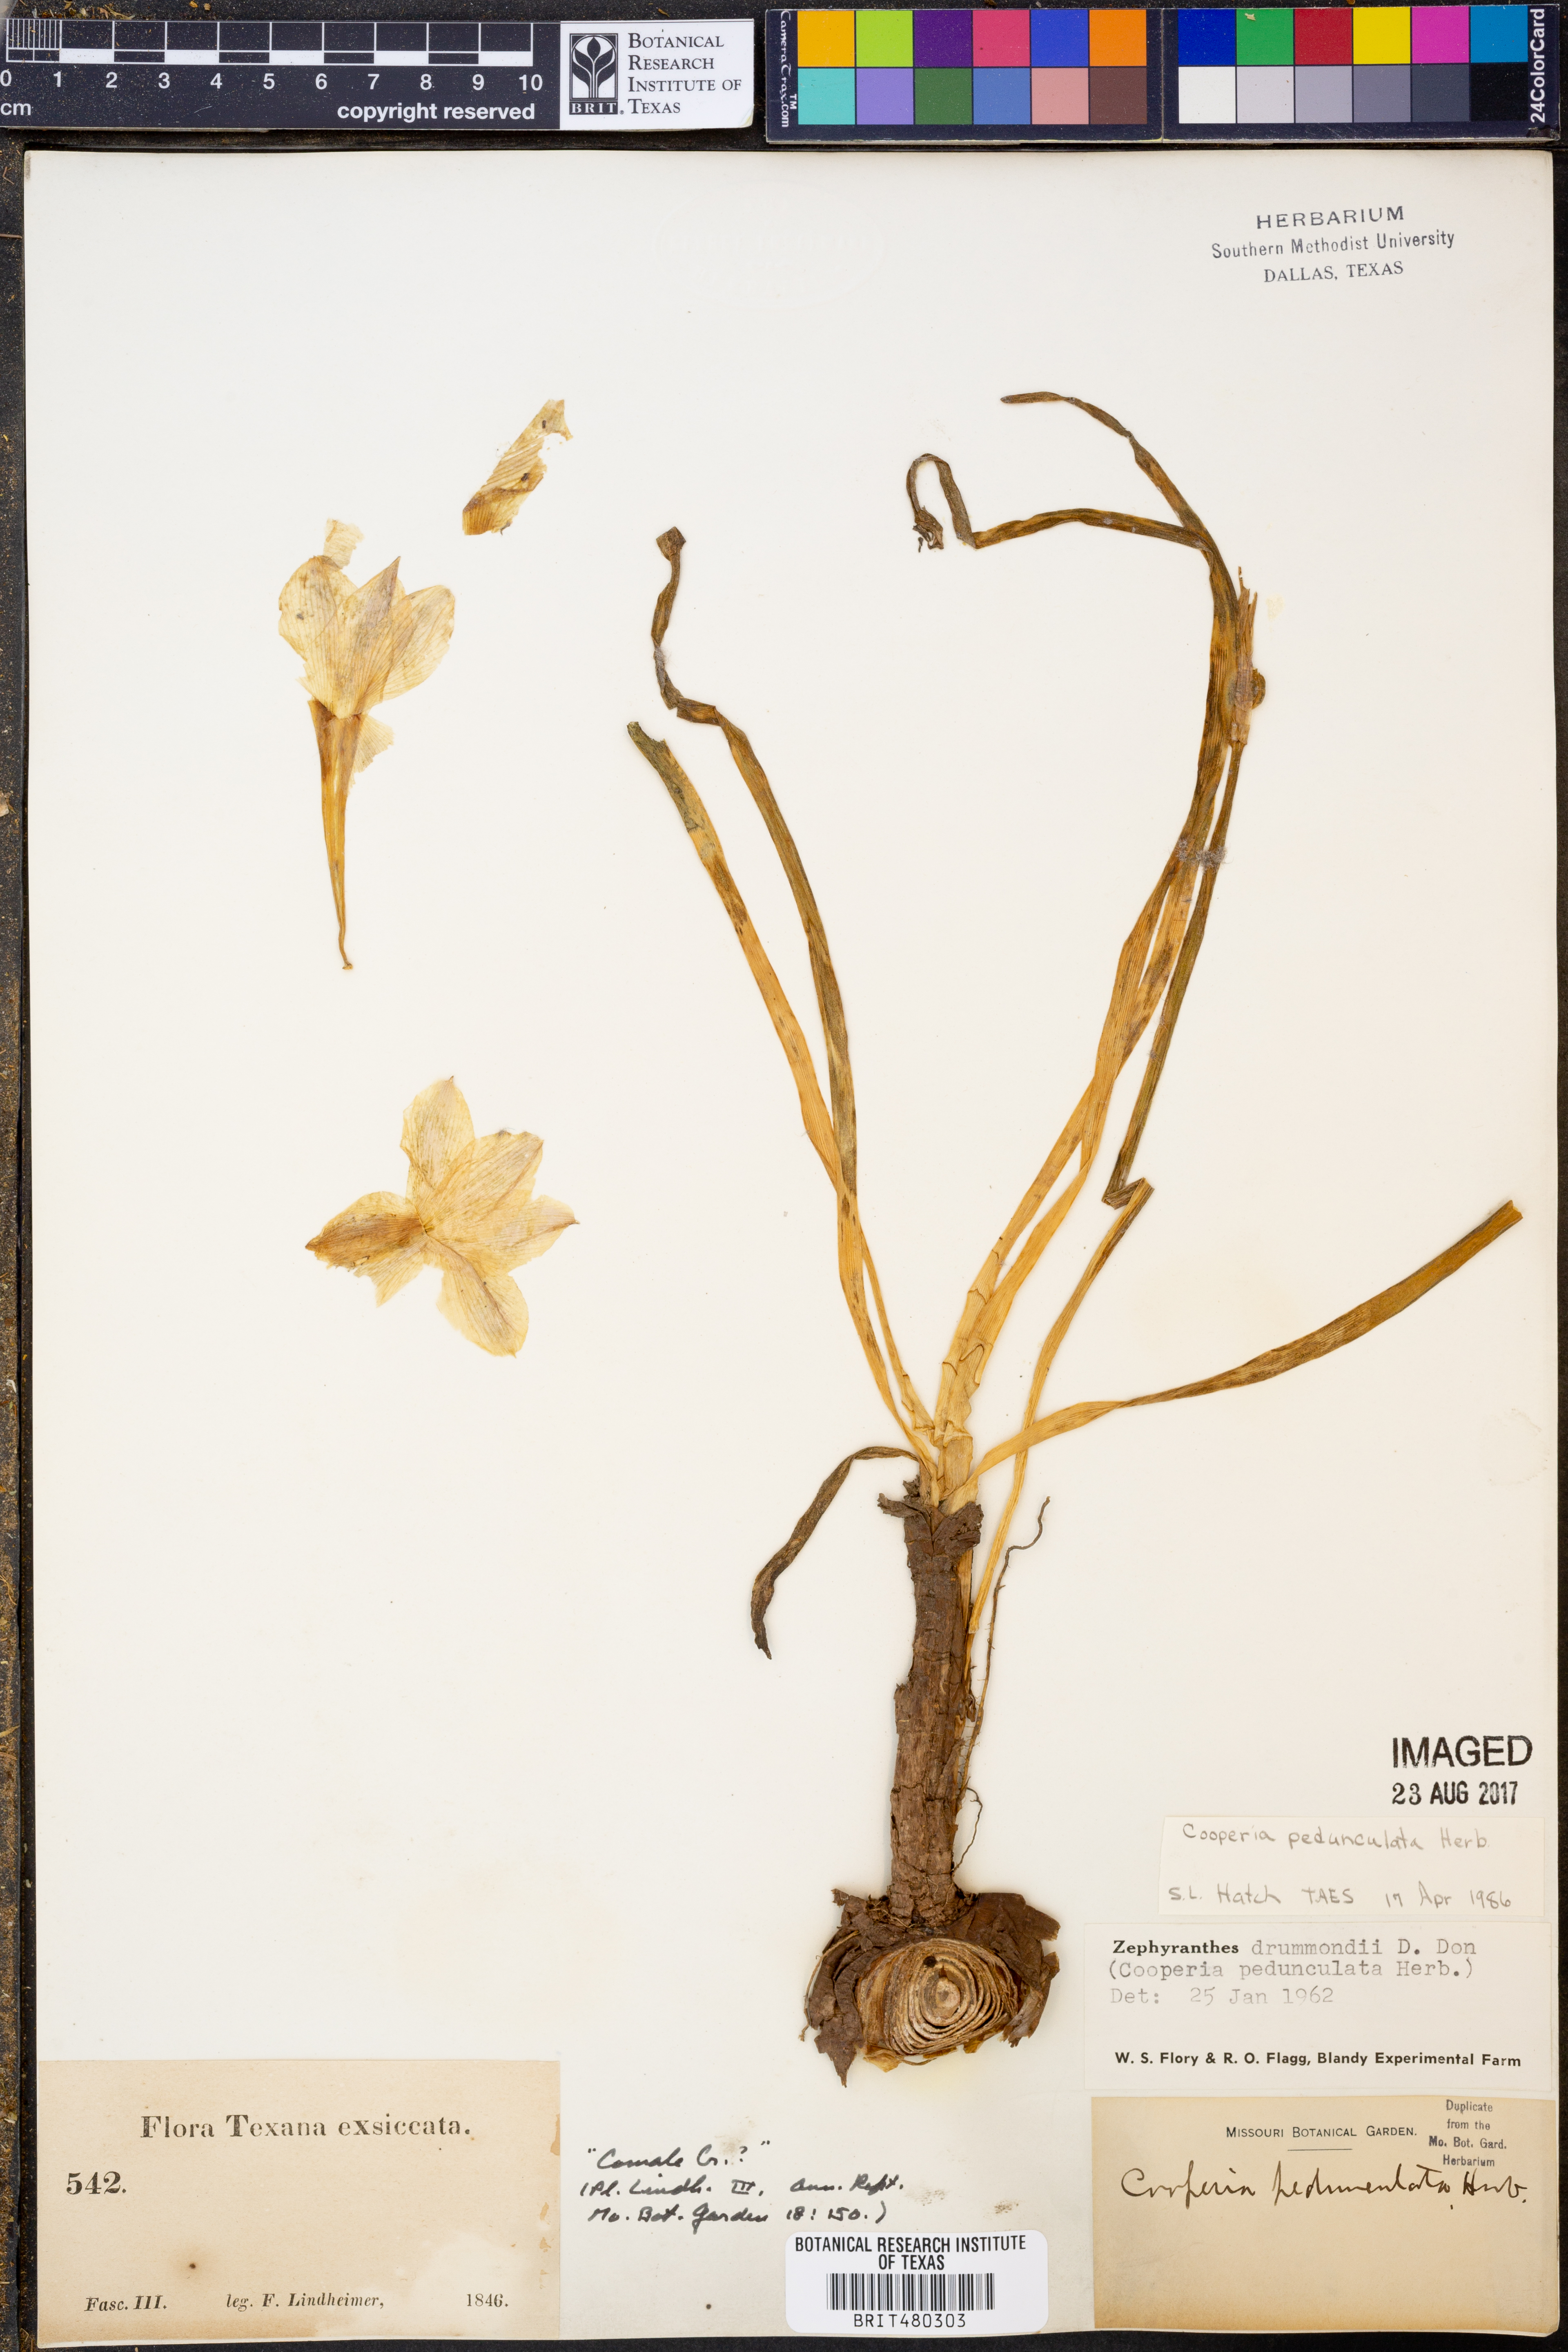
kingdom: Plantae
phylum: Tracheophyta
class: Liliopsida
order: Asparagales
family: Amaryllidaceae
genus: Zephyranthes
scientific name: Zephyranthes drummondii
